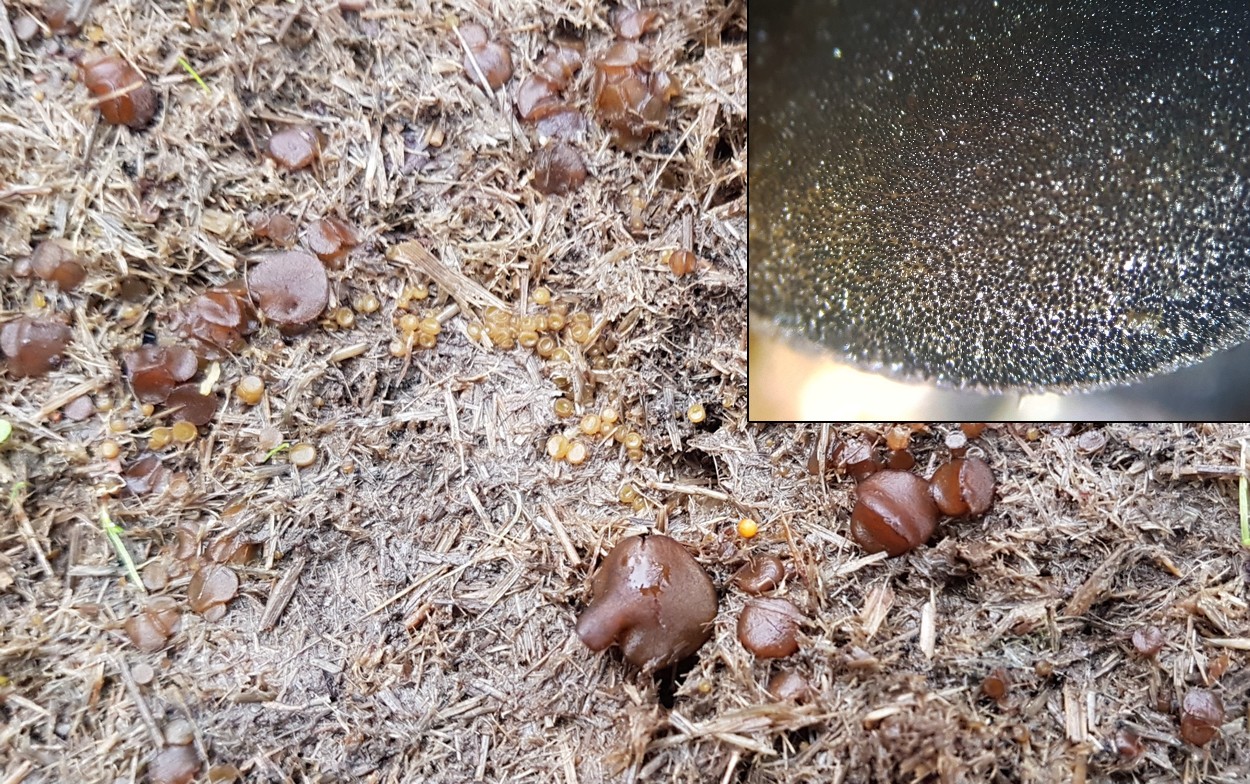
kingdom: Fungi
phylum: Ascomycota
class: Pezizomycetes
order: Pezizales
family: Ascobolaceae
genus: Ascobolus
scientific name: Ascobolus furfuraceus
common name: almindelig prikbæger
